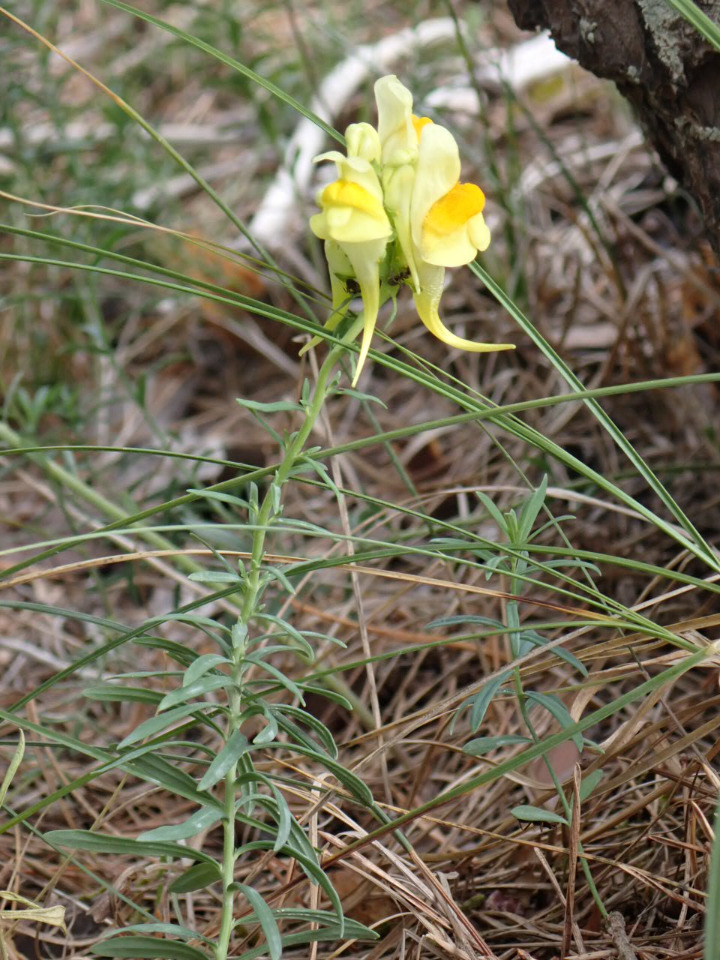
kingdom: Plantae
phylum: Tracheophyta
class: Magnoliopsida
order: Lamiales
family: Plantaginaceae
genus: Linaria
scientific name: Linaria vulgaris
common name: Almindelig torskemund
